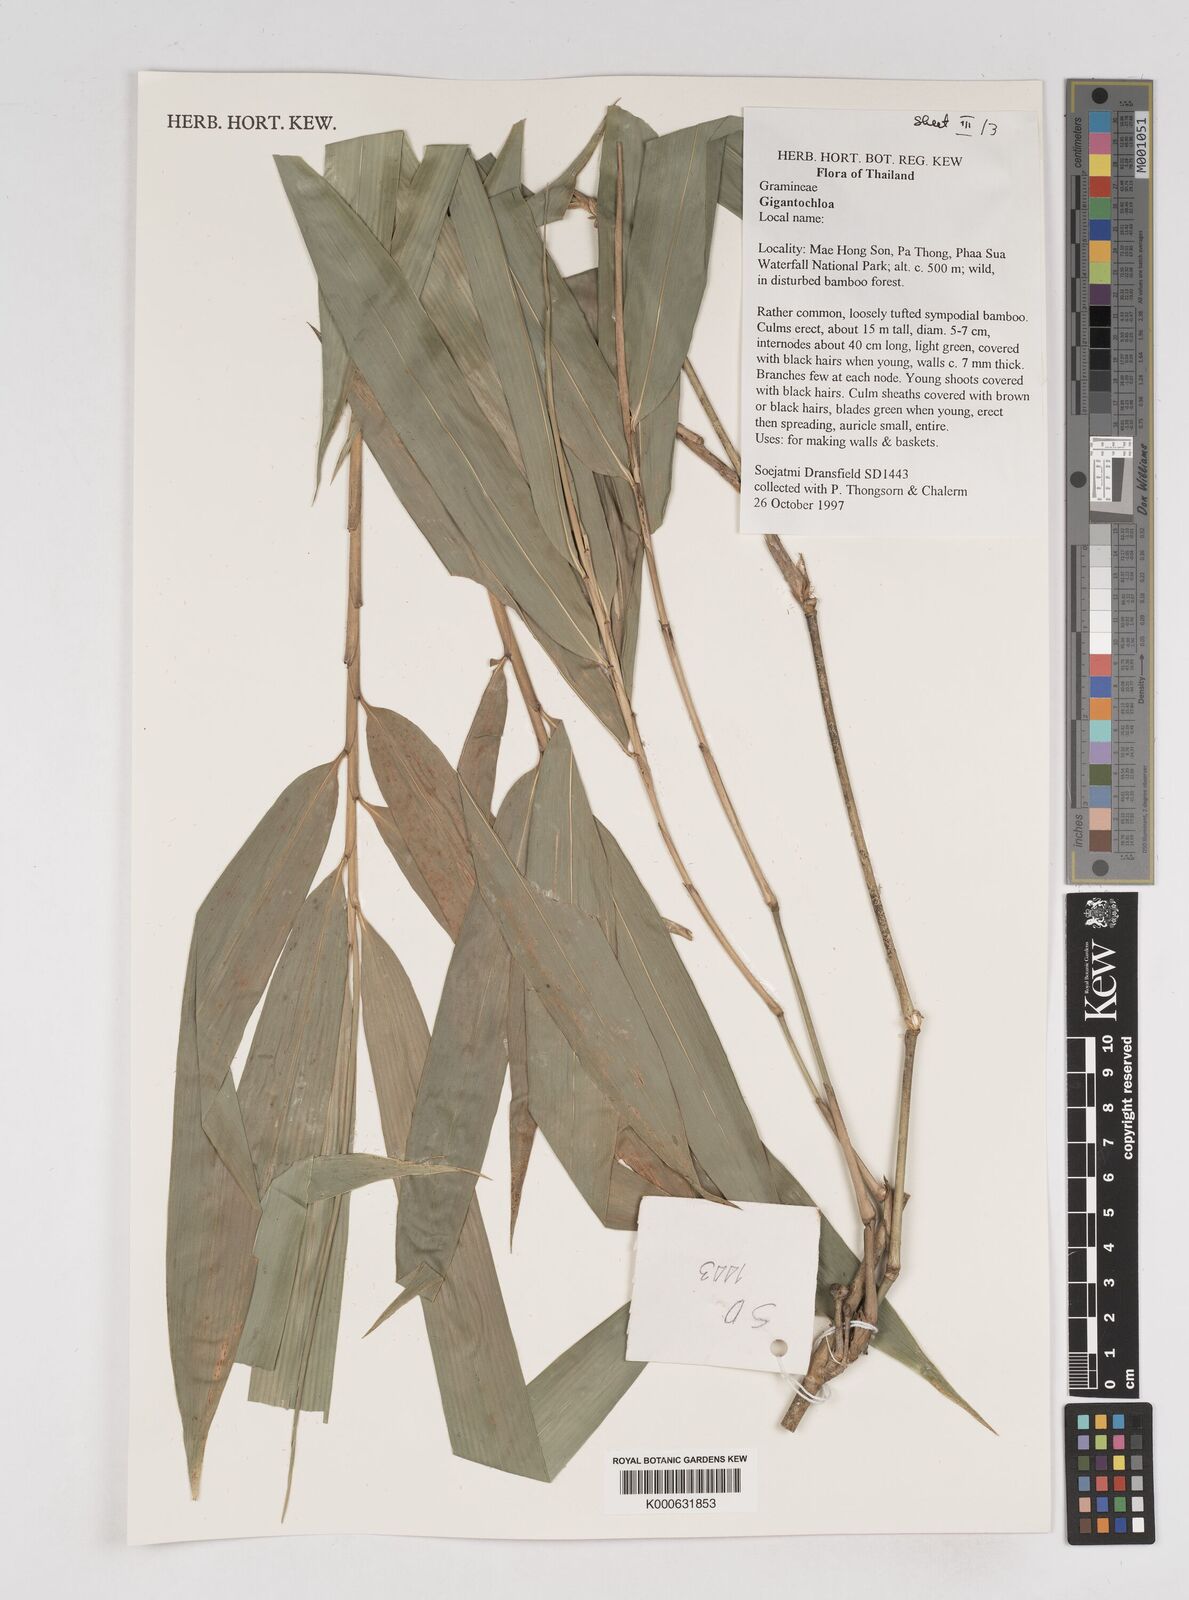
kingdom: Plantae
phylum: Tracheophyta
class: Liliopsida
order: Poales
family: Poaceae
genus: Gigantochloa
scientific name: Gigantochloa
